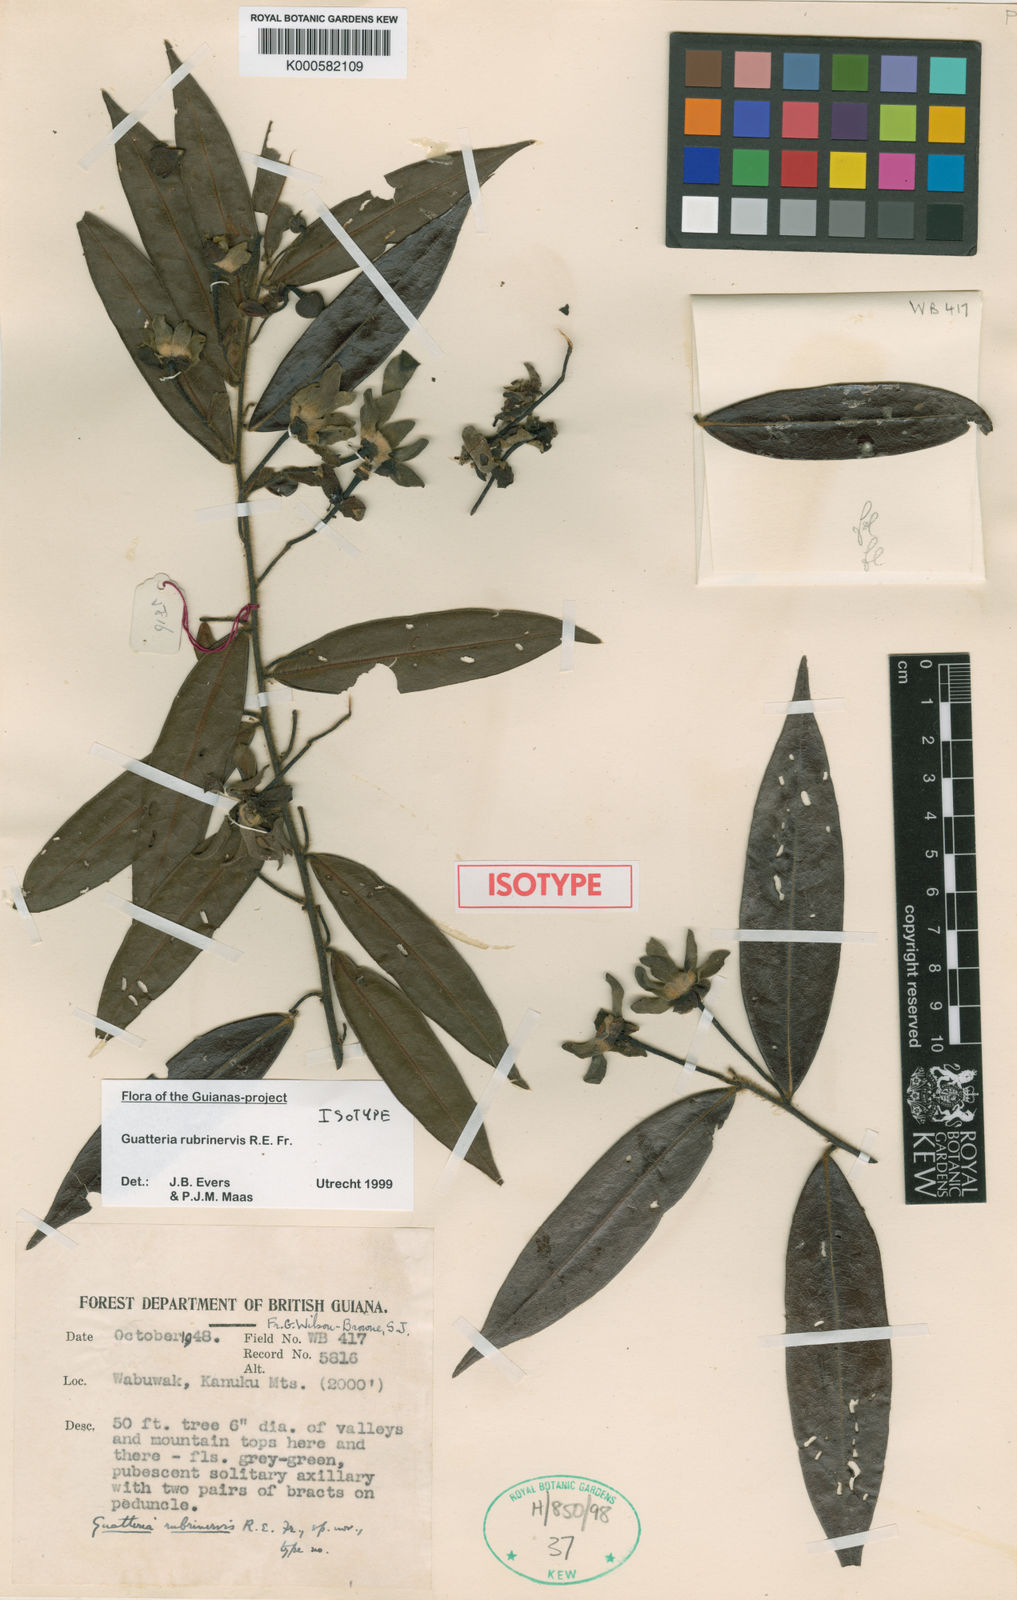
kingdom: Plantae
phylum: Tracheophyta
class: Magnoliopsida
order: Magnoliales
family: Annonaceae
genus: Guatteria
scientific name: Guatteria rubrinervis
